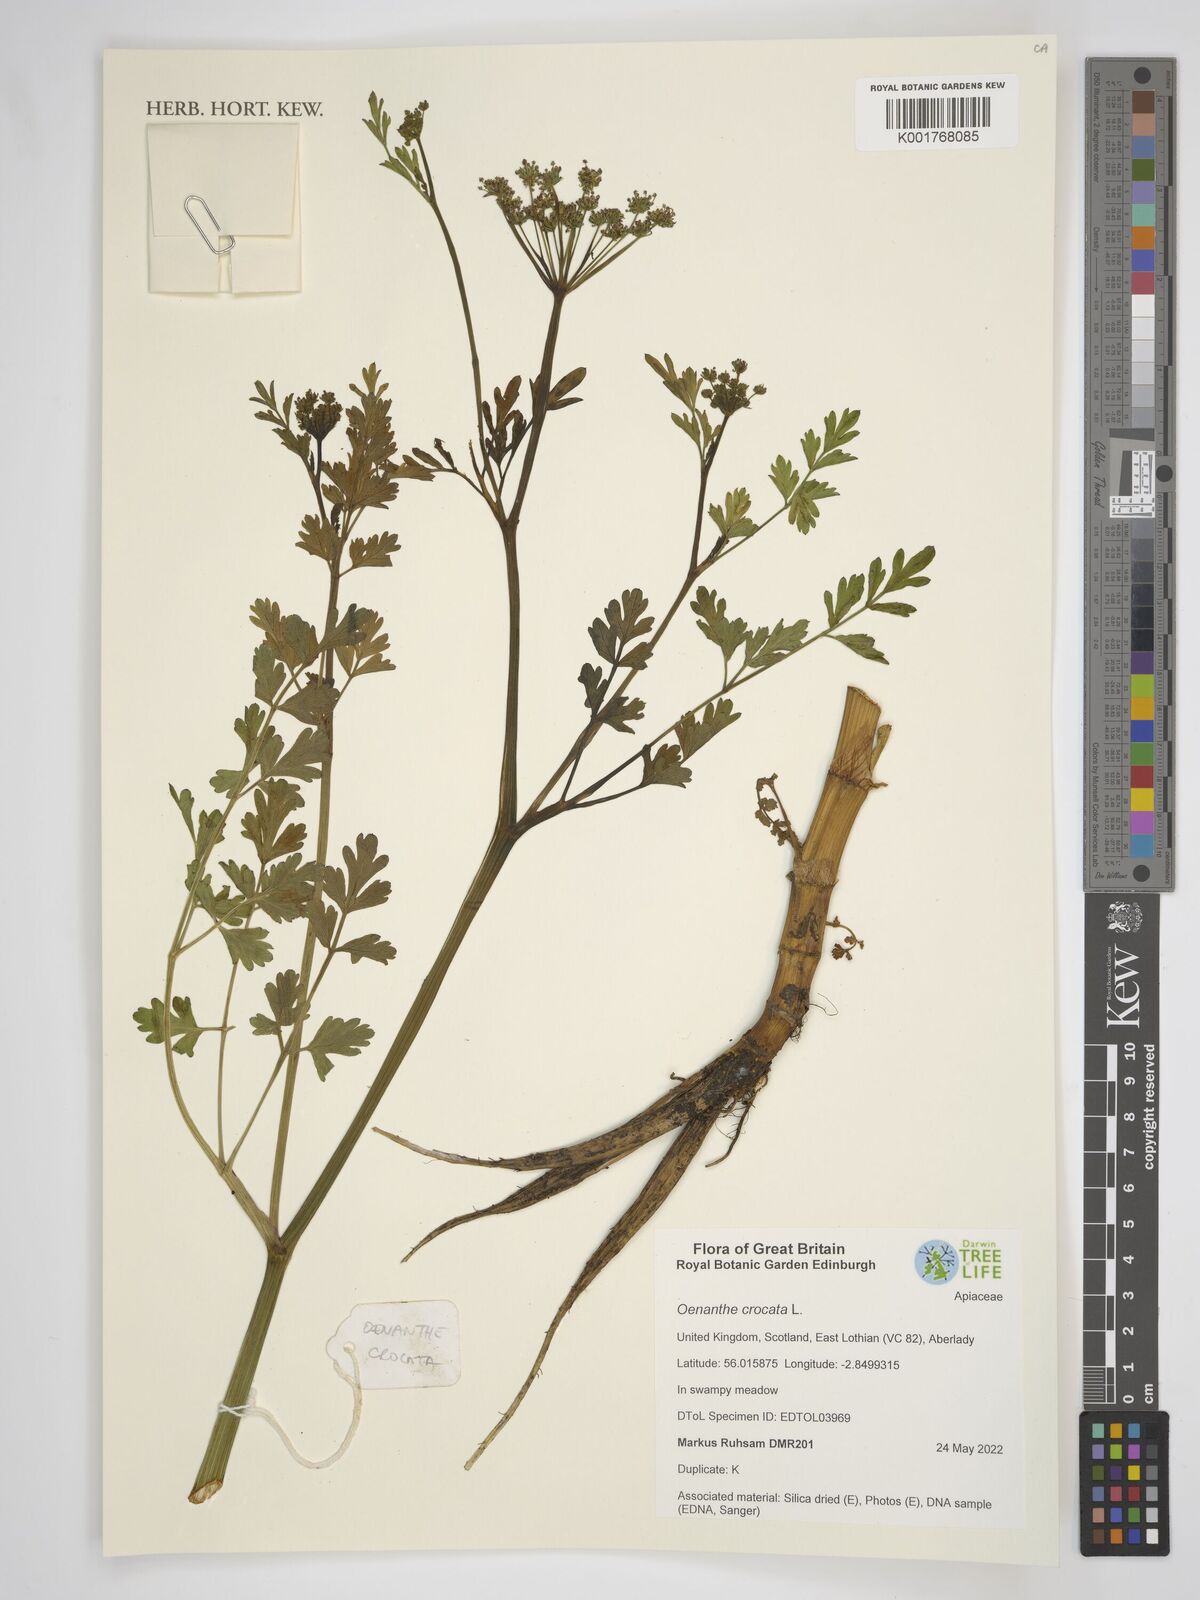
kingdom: Plantae
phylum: Tracheophyta
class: Magnoliopsida
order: Apiales
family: Apiaceae
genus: Oenanthe
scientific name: Oenanthe crocata
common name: Hemlock water-dropwort
